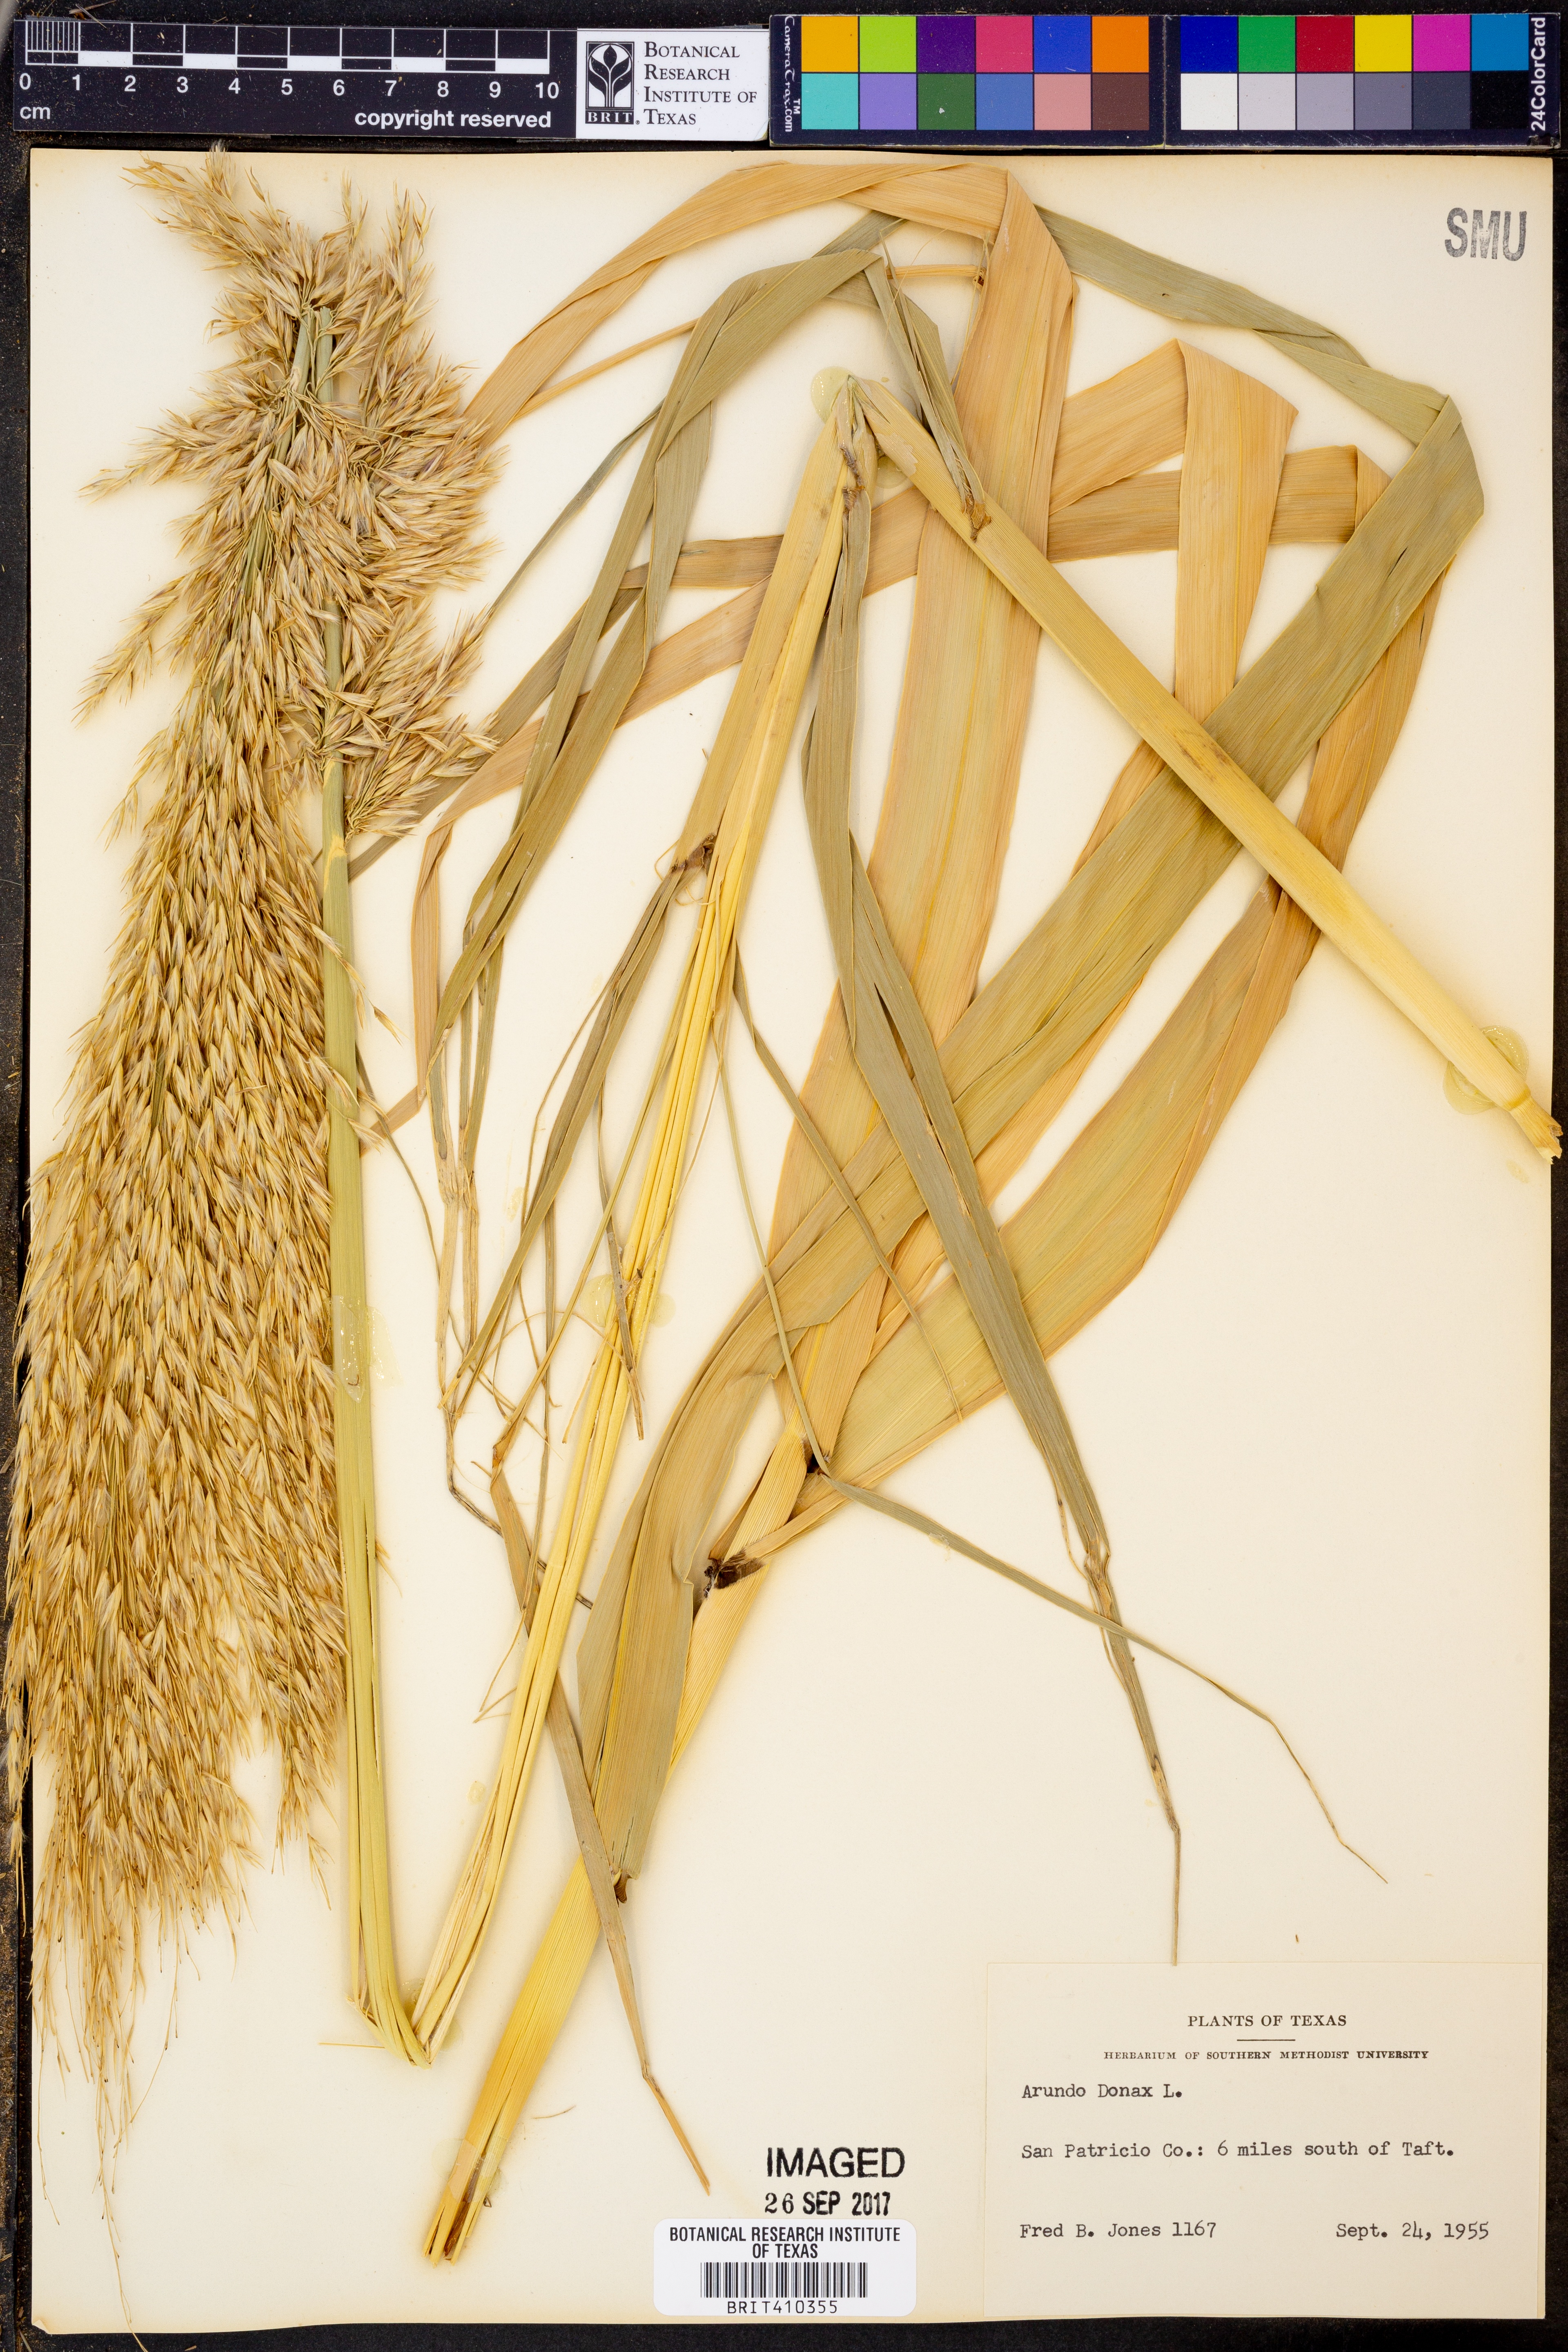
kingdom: Plantae
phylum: Tracheophyta
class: Liliopsida
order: Poales
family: Poaceae
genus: Arundo
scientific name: Arundo donax
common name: Giant reed
